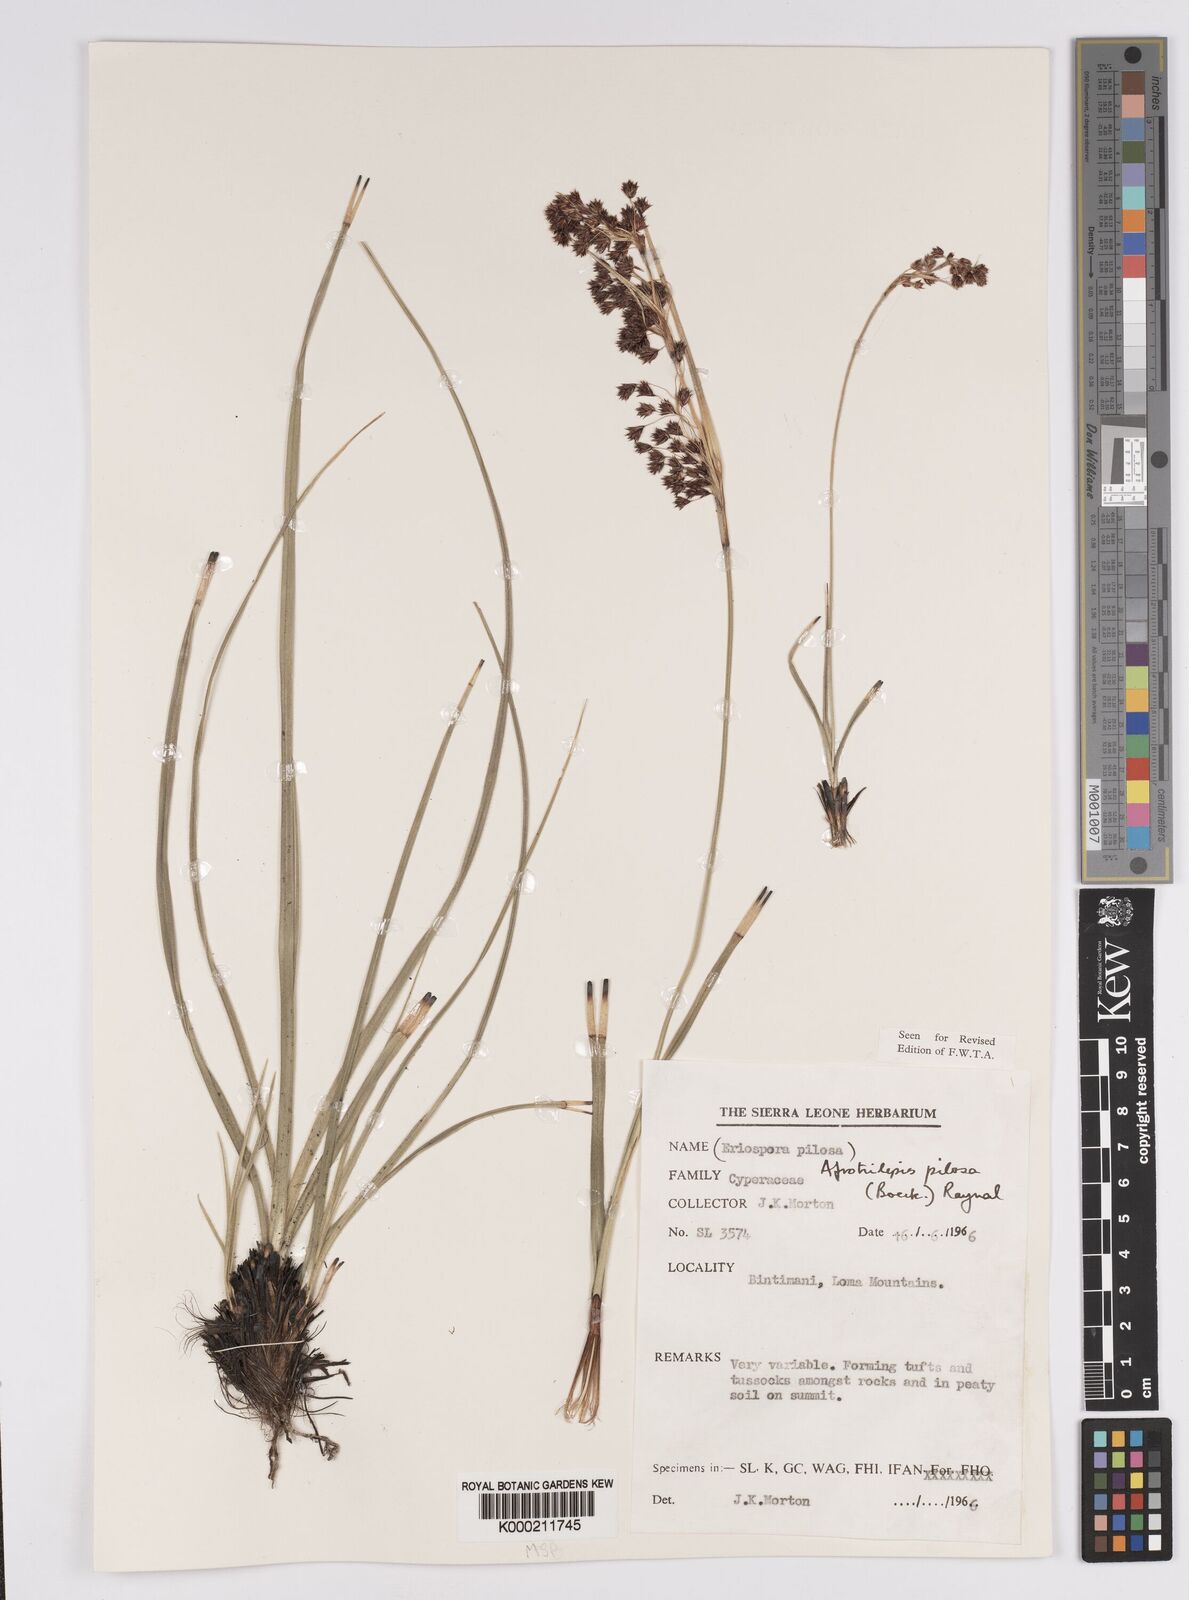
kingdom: Plantae
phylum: Tracheophyta
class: Liliopsida
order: Poales
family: Cyperaceae
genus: Afrotrilepis
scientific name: Afrotrilepis pilosa
